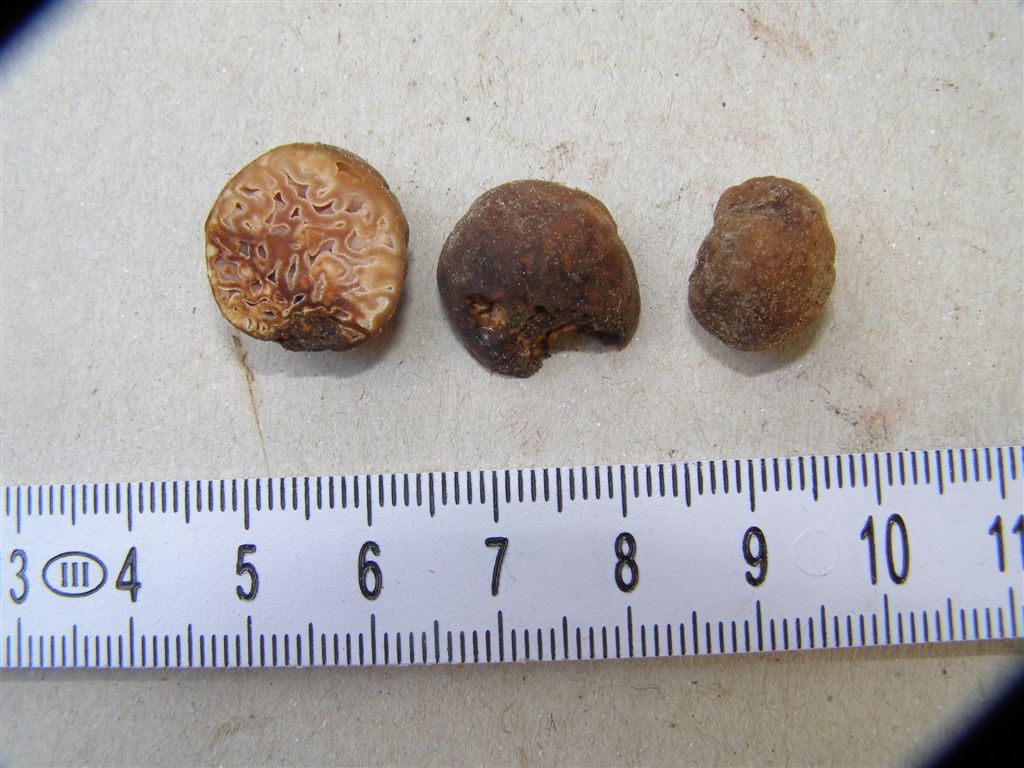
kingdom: Fungi
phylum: Ascomycota
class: Pezizomycetes
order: Pezizales
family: Discinaceae
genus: Hydnotrya
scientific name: Hydnotrya tulasnei
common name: almindelig foldtrøffel
